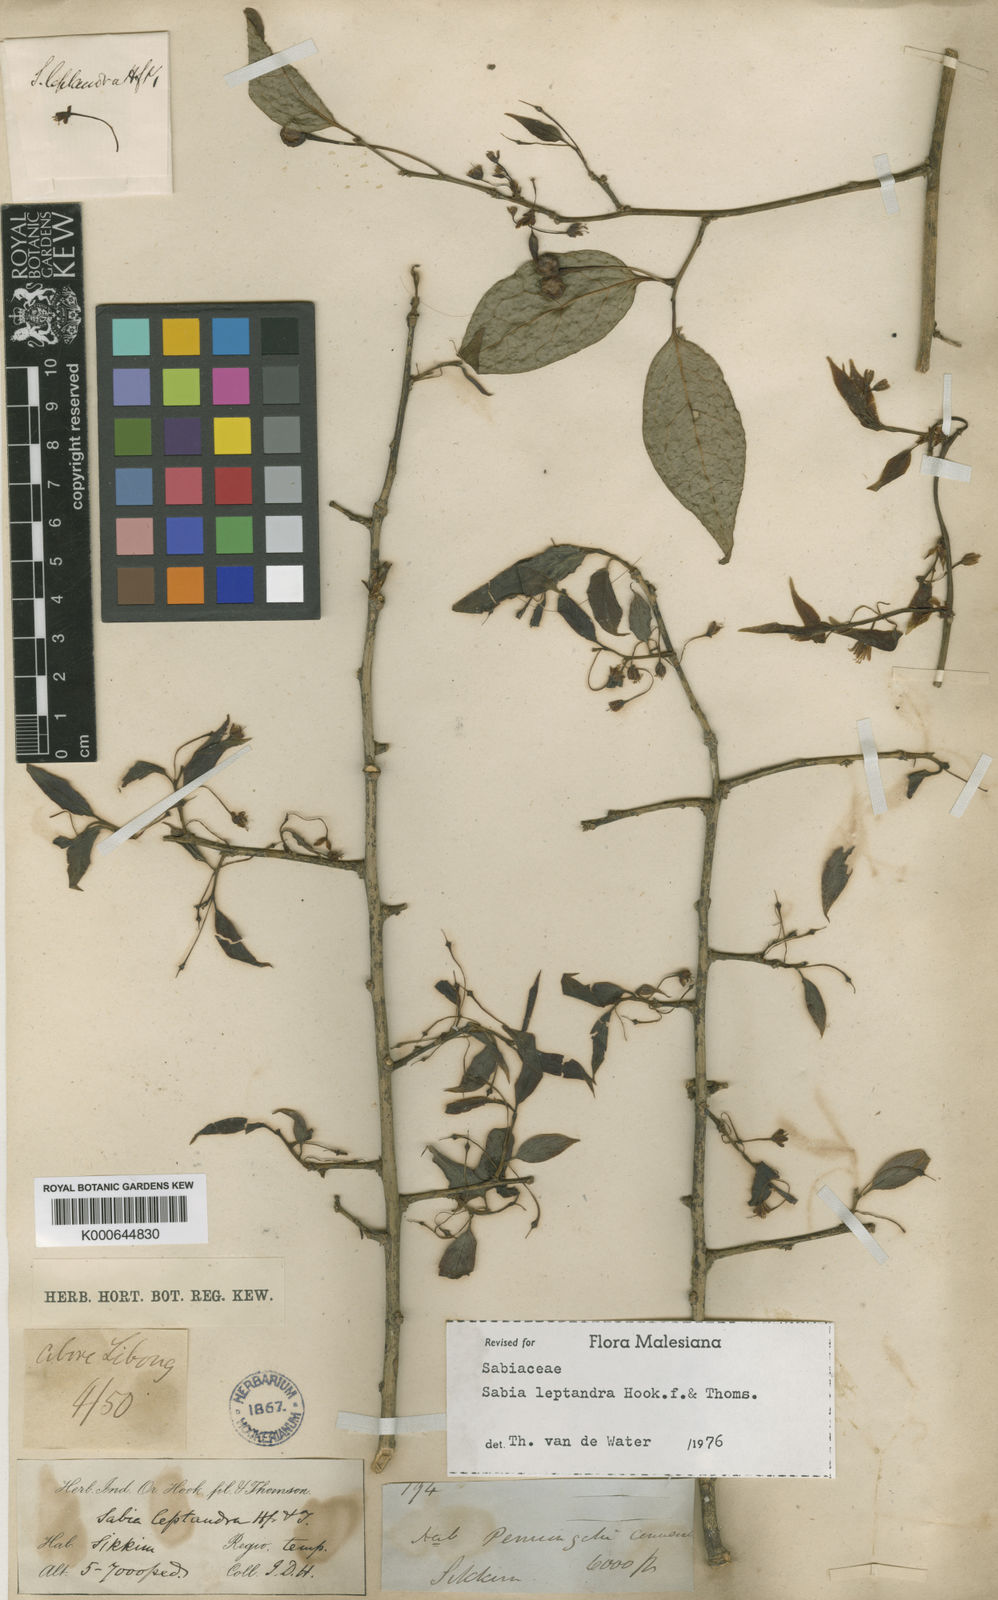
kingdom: Plantae
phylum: Tracheophyta
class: Magnoliopsida
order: Proteales
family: Sabiaceae
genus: Sabia
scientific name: Sabia campanulata
